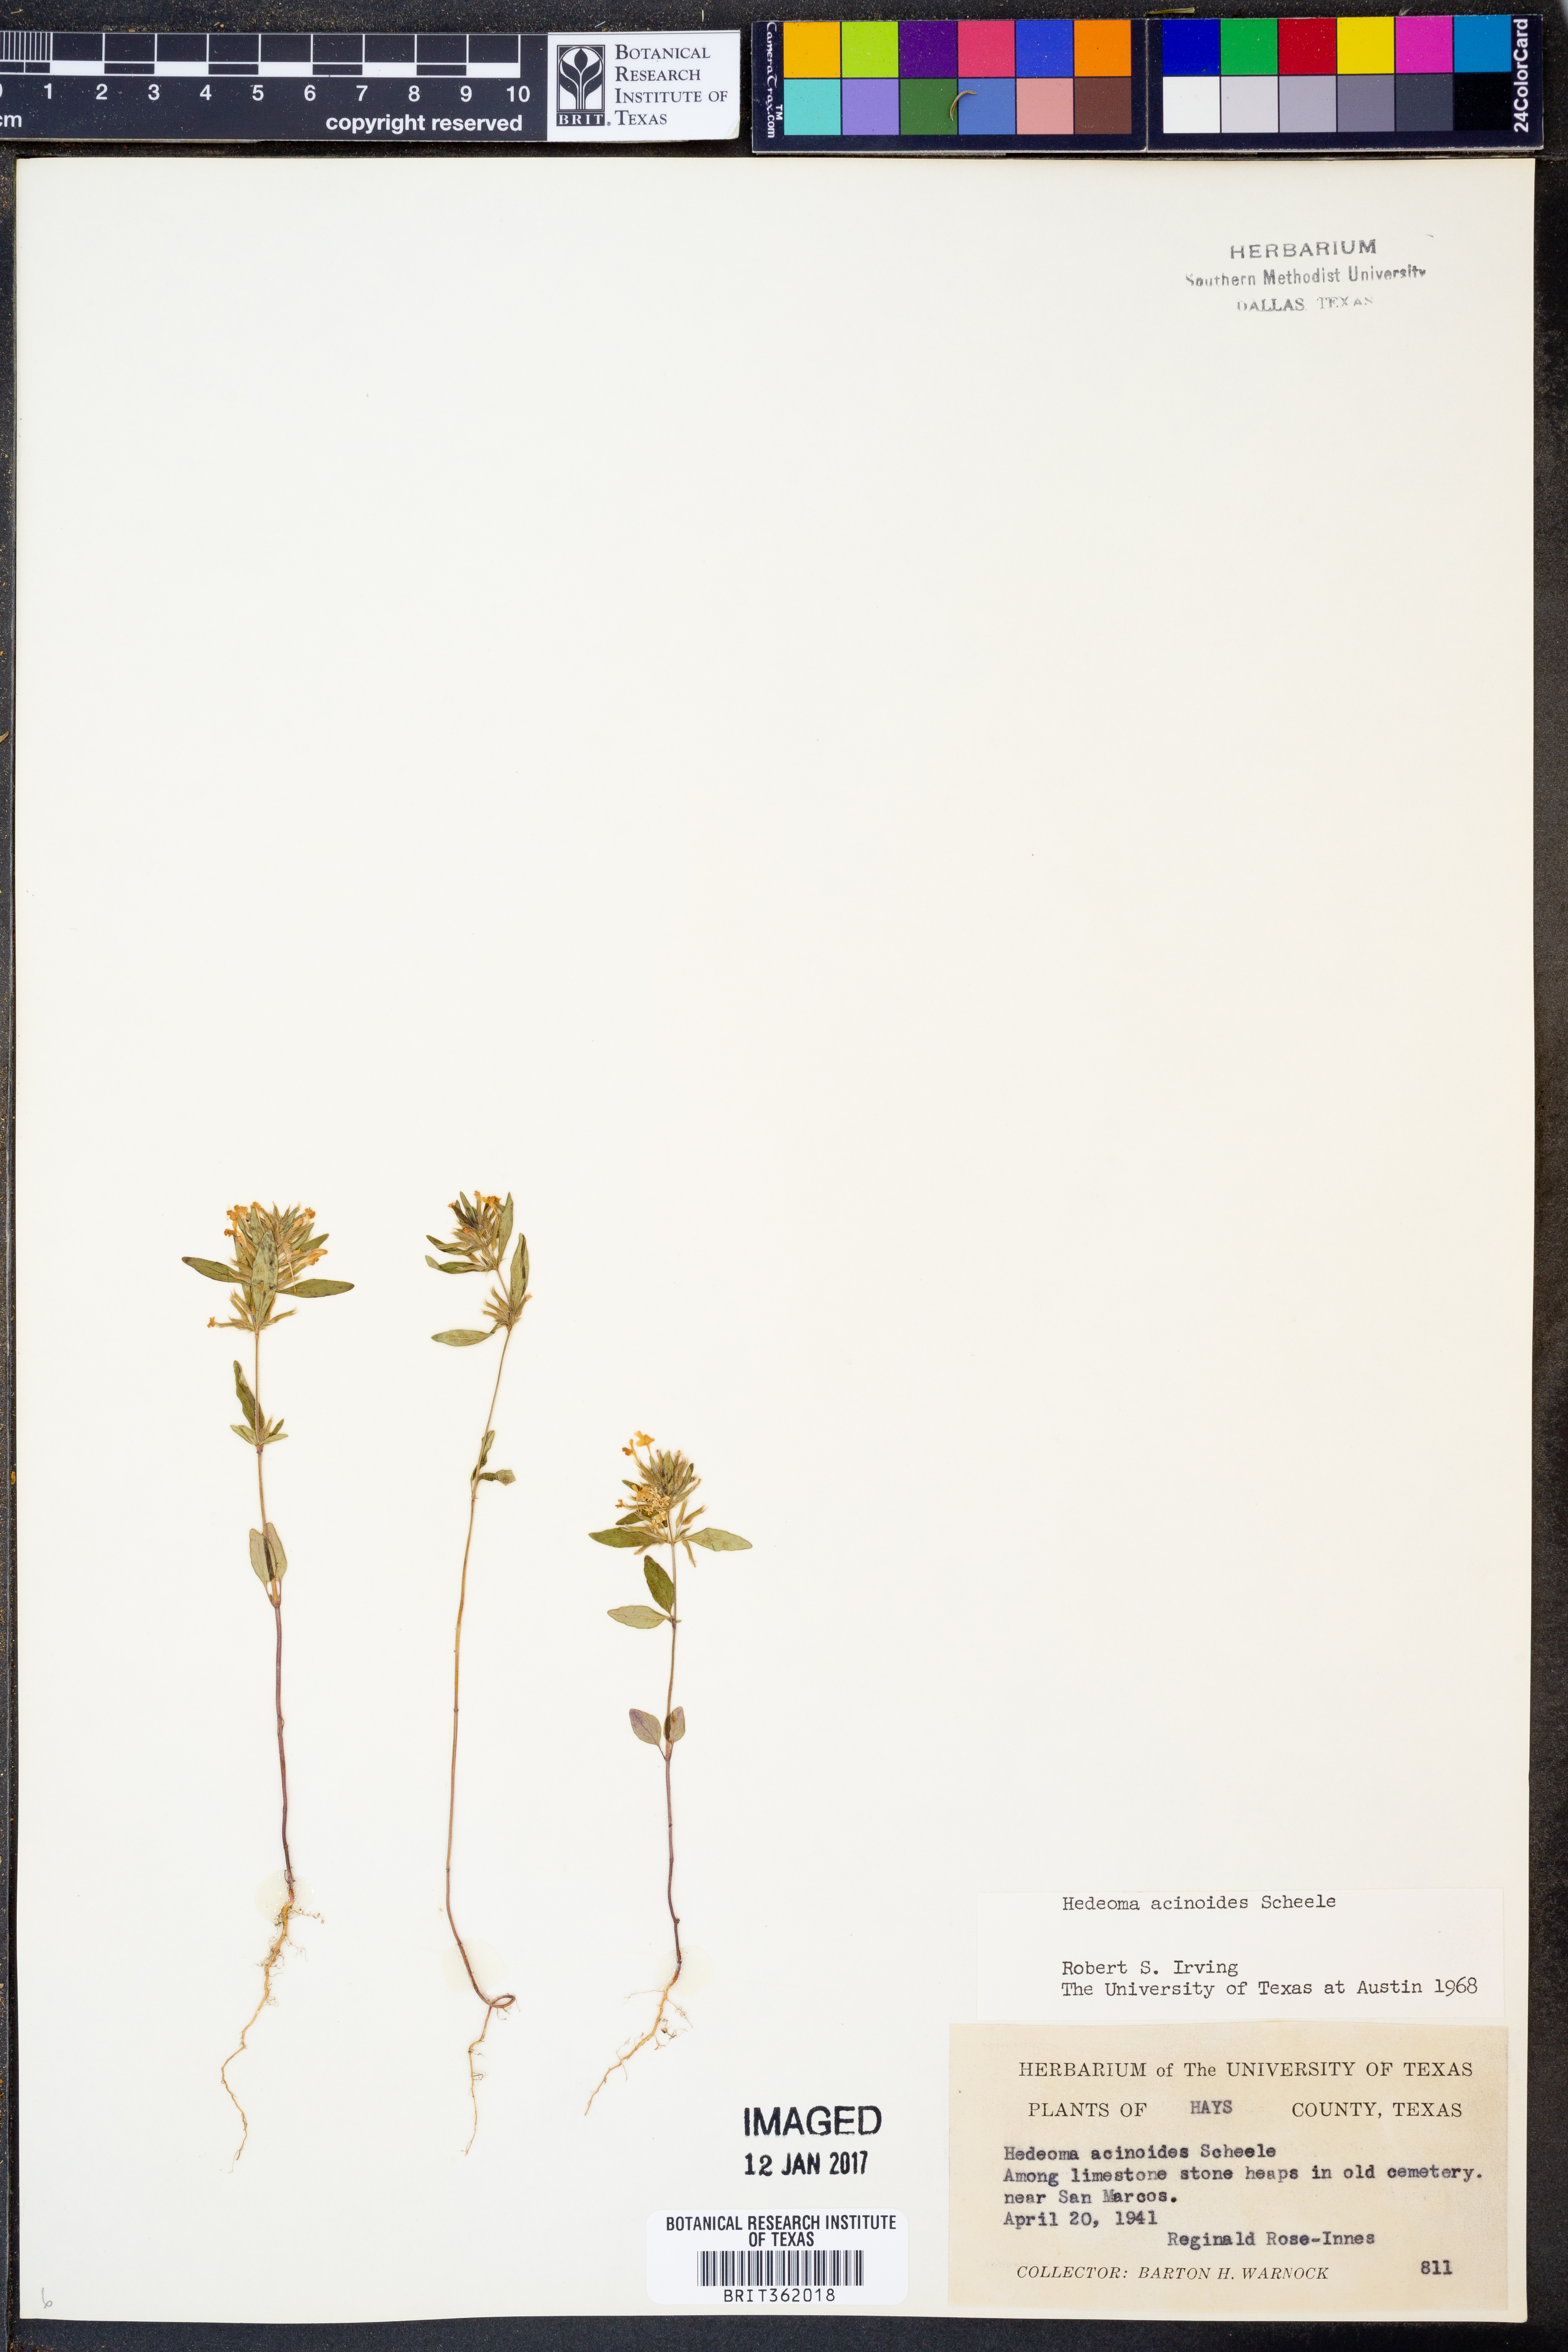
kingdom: Plantae
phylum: Tracheophyta
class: Magnoliopsida
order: Lamiales
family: Lamiaceae
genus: Hedeoma
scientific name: Hedeoma acinoides
